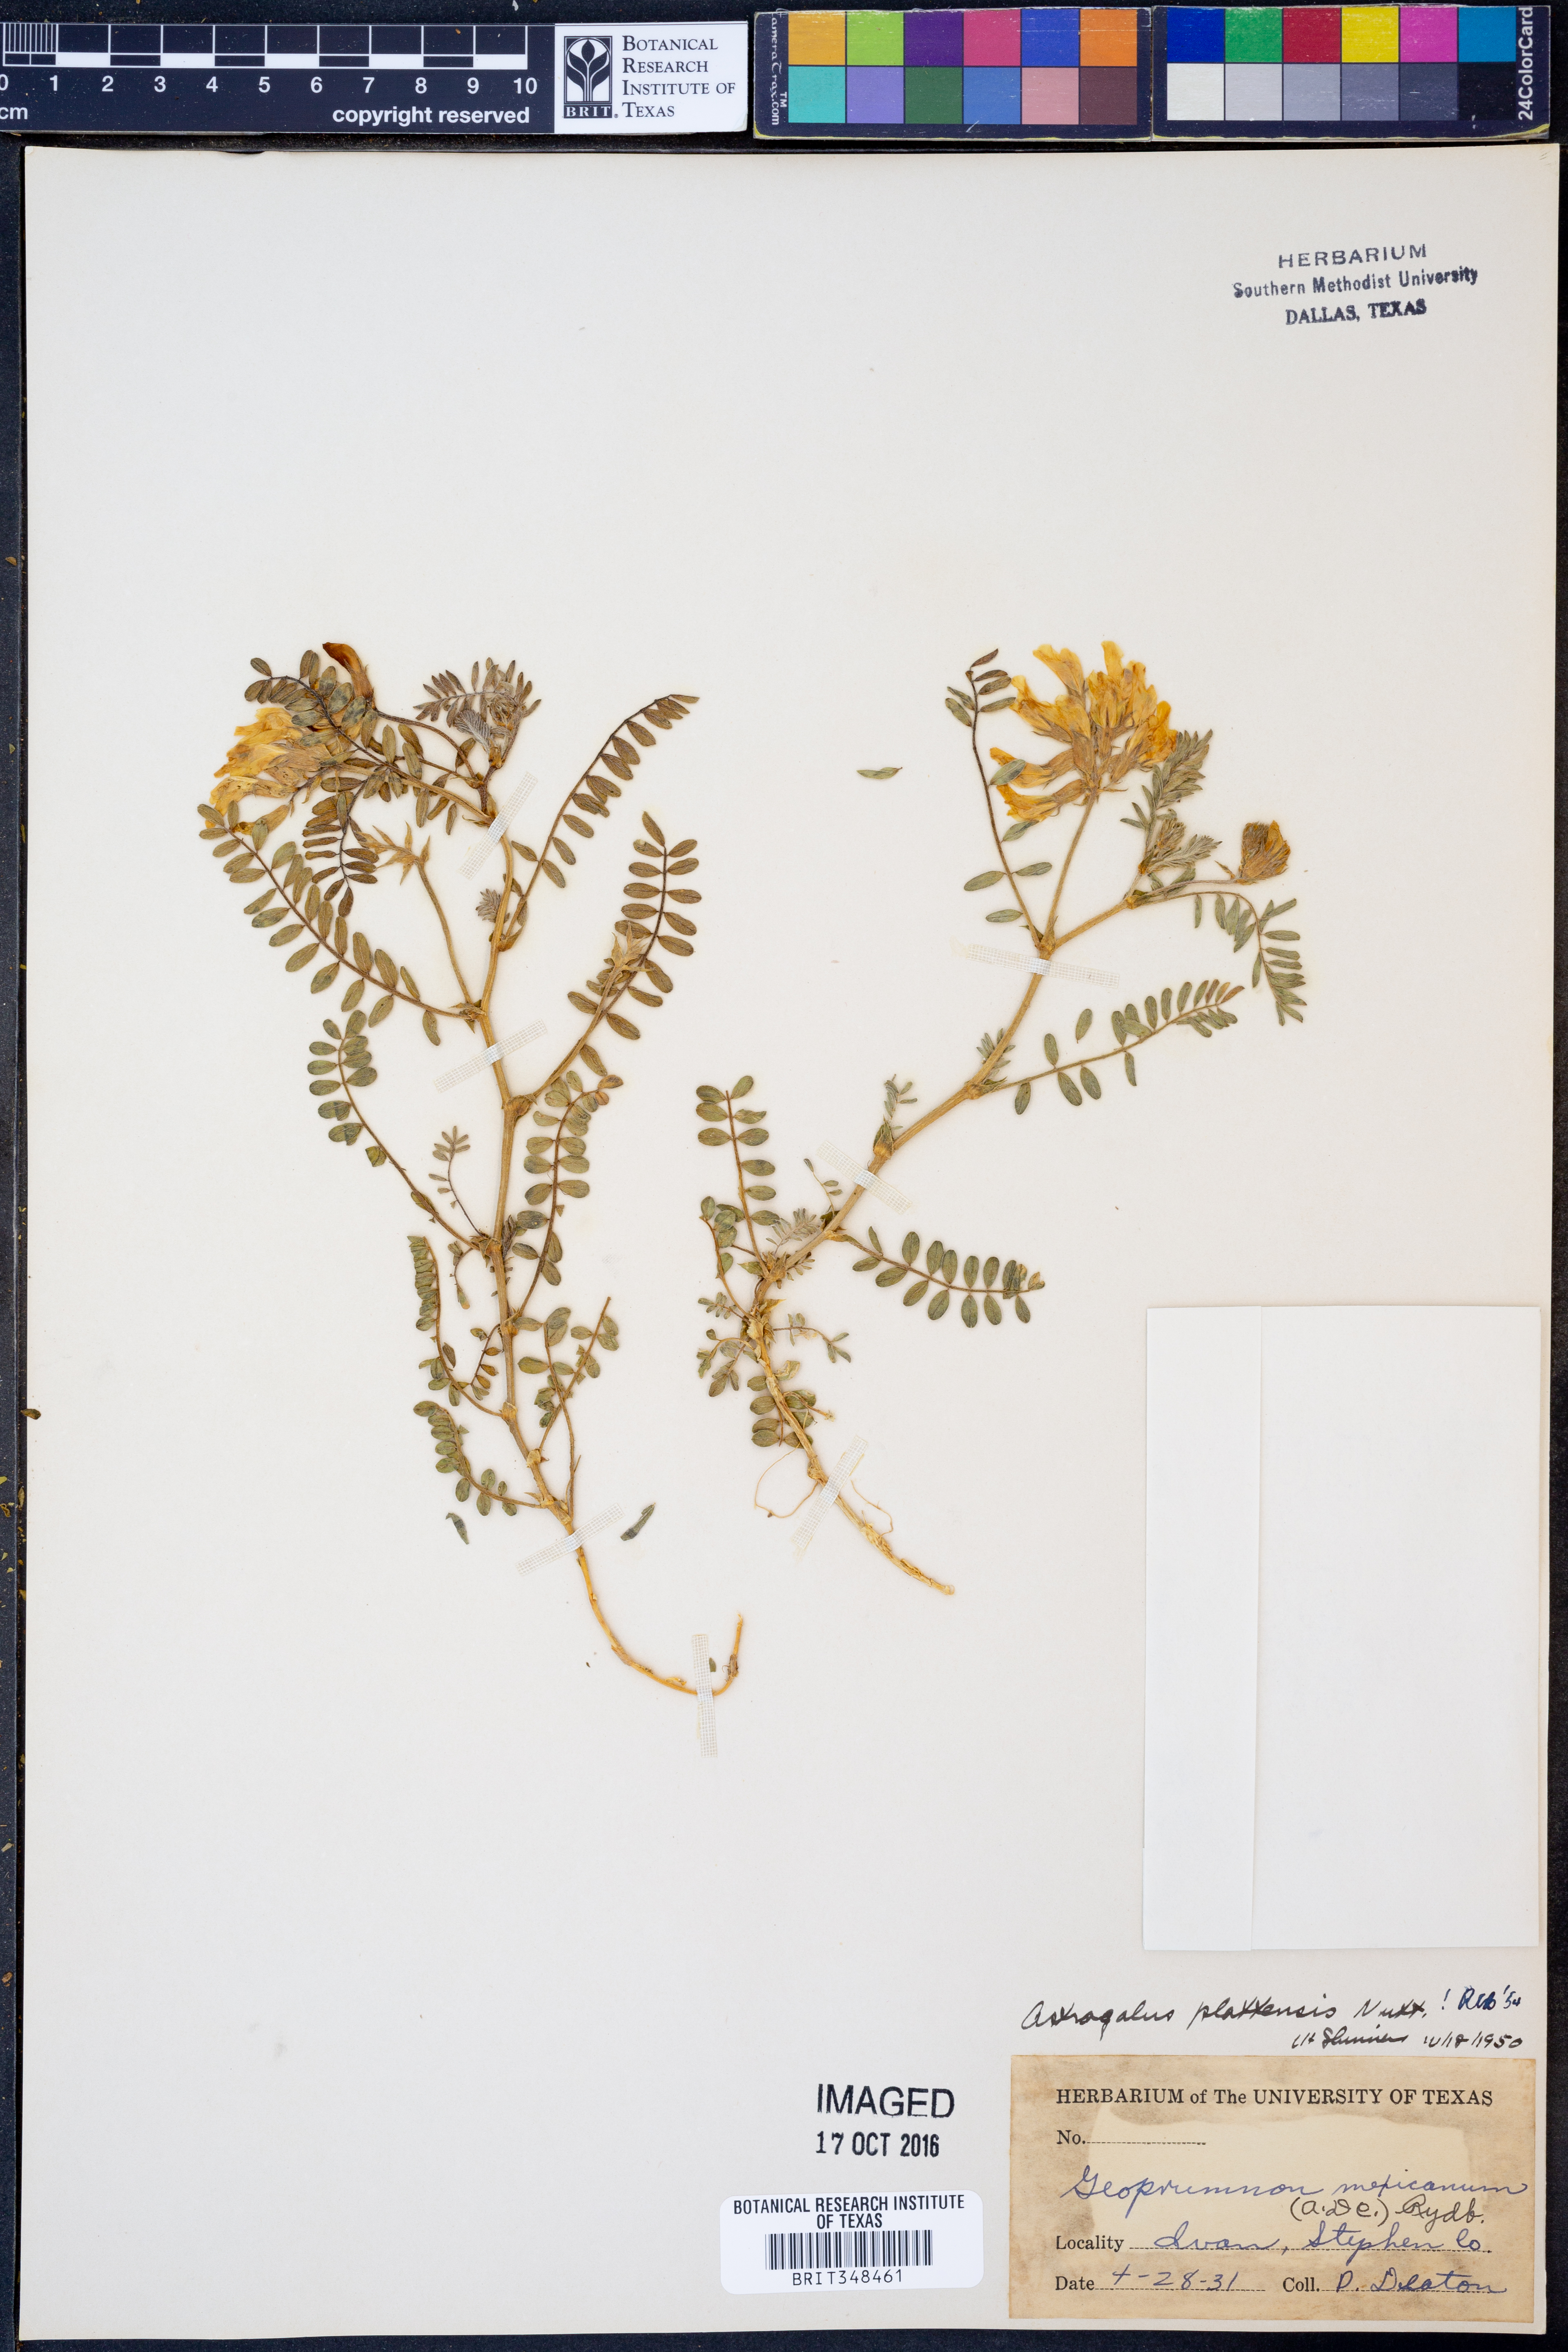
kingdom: Plantae
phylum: Tracheophyta
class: Magnoliopsida
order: Fabales
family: Fabaceae
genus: Astragalus
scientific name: Astragalus plattensis
